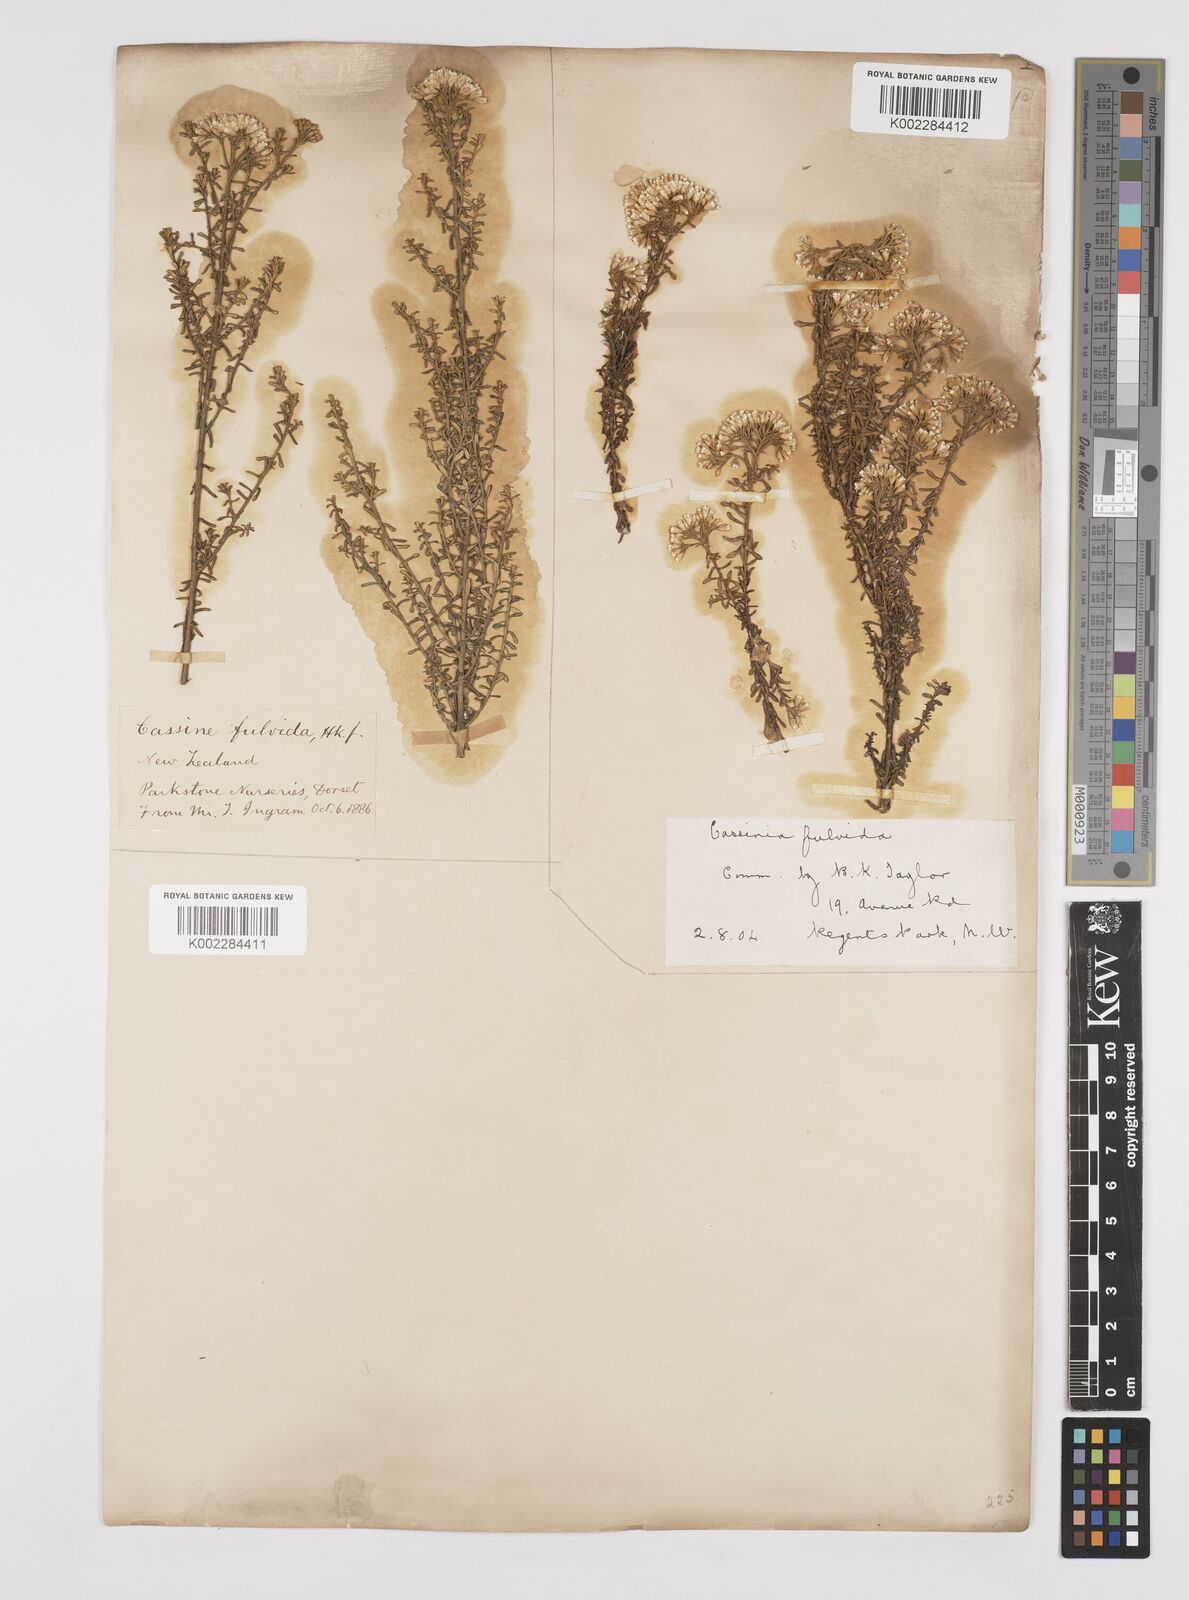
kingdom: Plantae
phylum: Tracheophyta
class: Magnoliopsida
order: Asterales
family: Asteraceae
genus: Ozothamnus
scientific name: Ozothamnus leptophyllus
